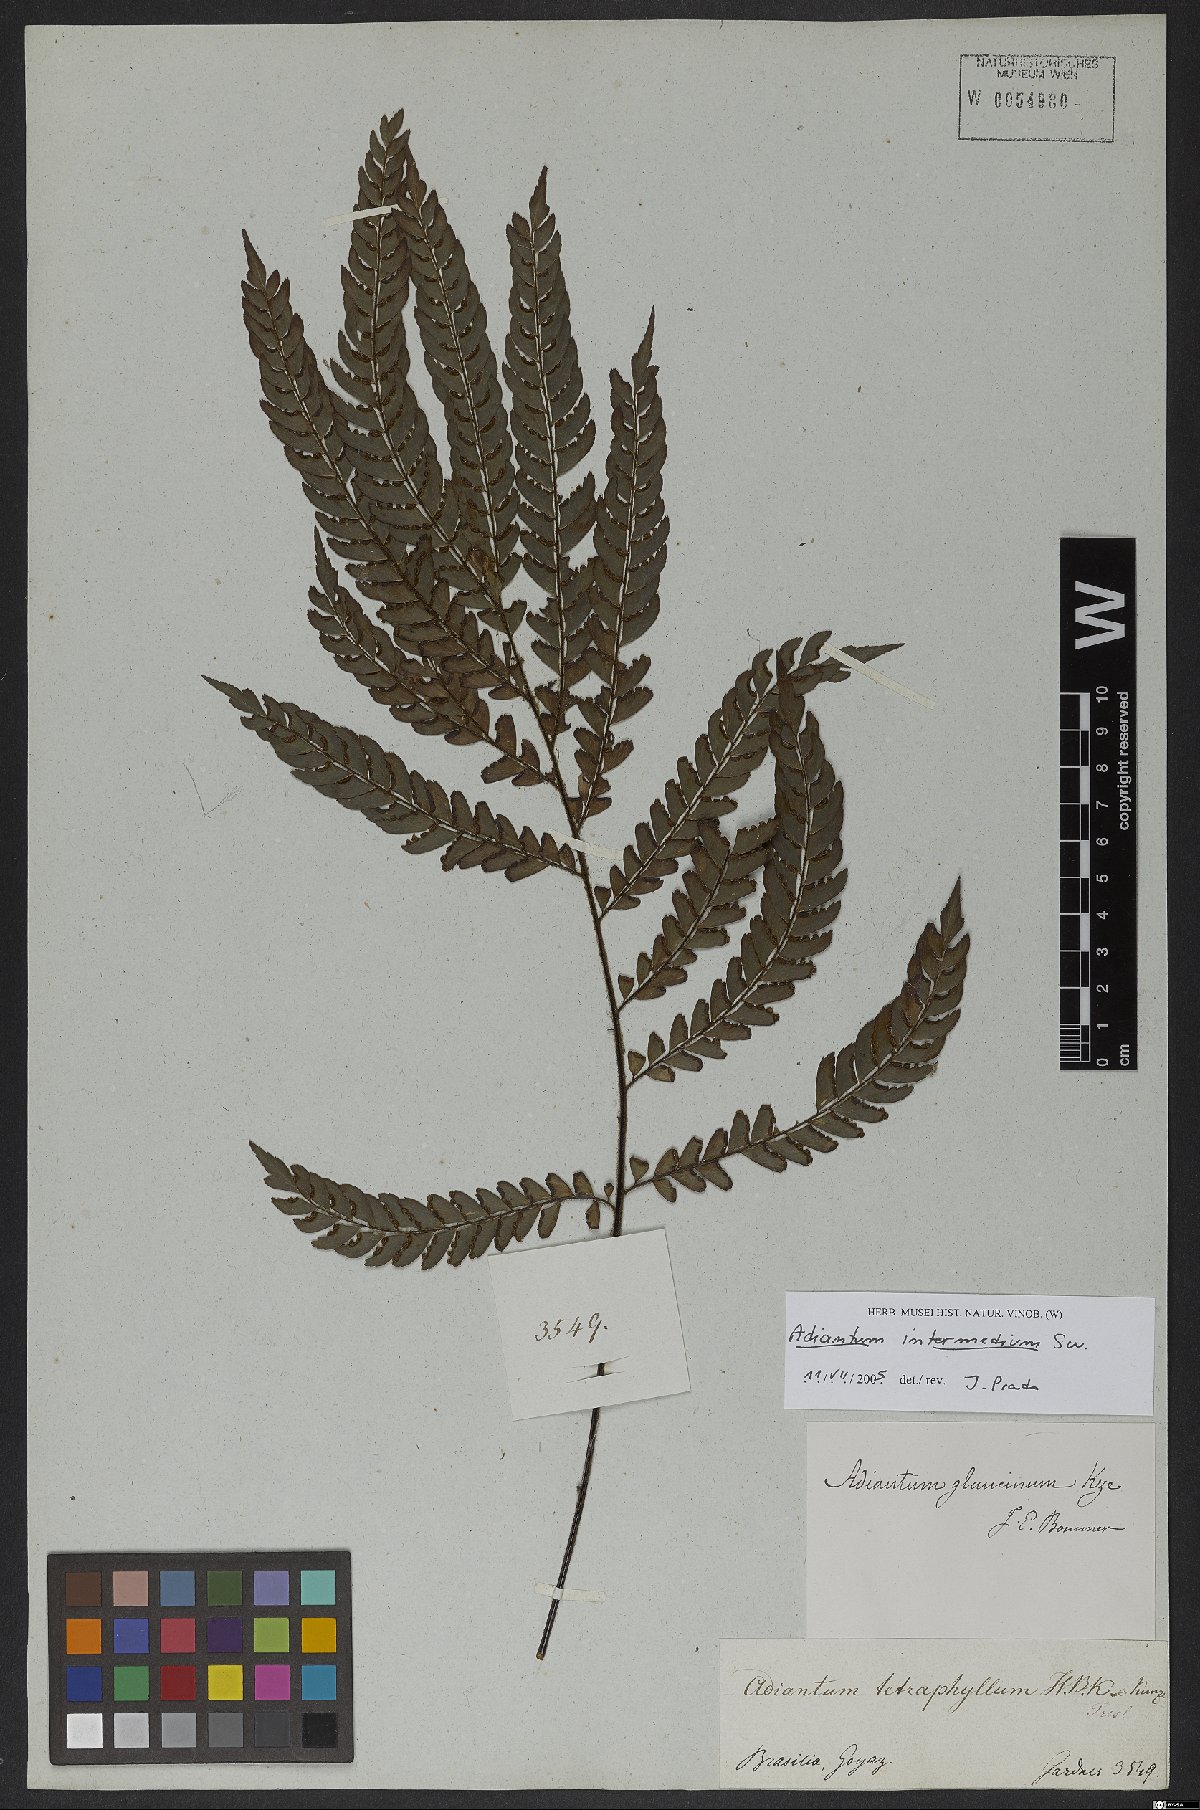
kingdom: Plantae
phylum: Tracheophyta
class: Polypodiopsida
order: Polypodiales
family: Pteridaceae
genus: Adiantum
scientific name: Adiantum intermedium
